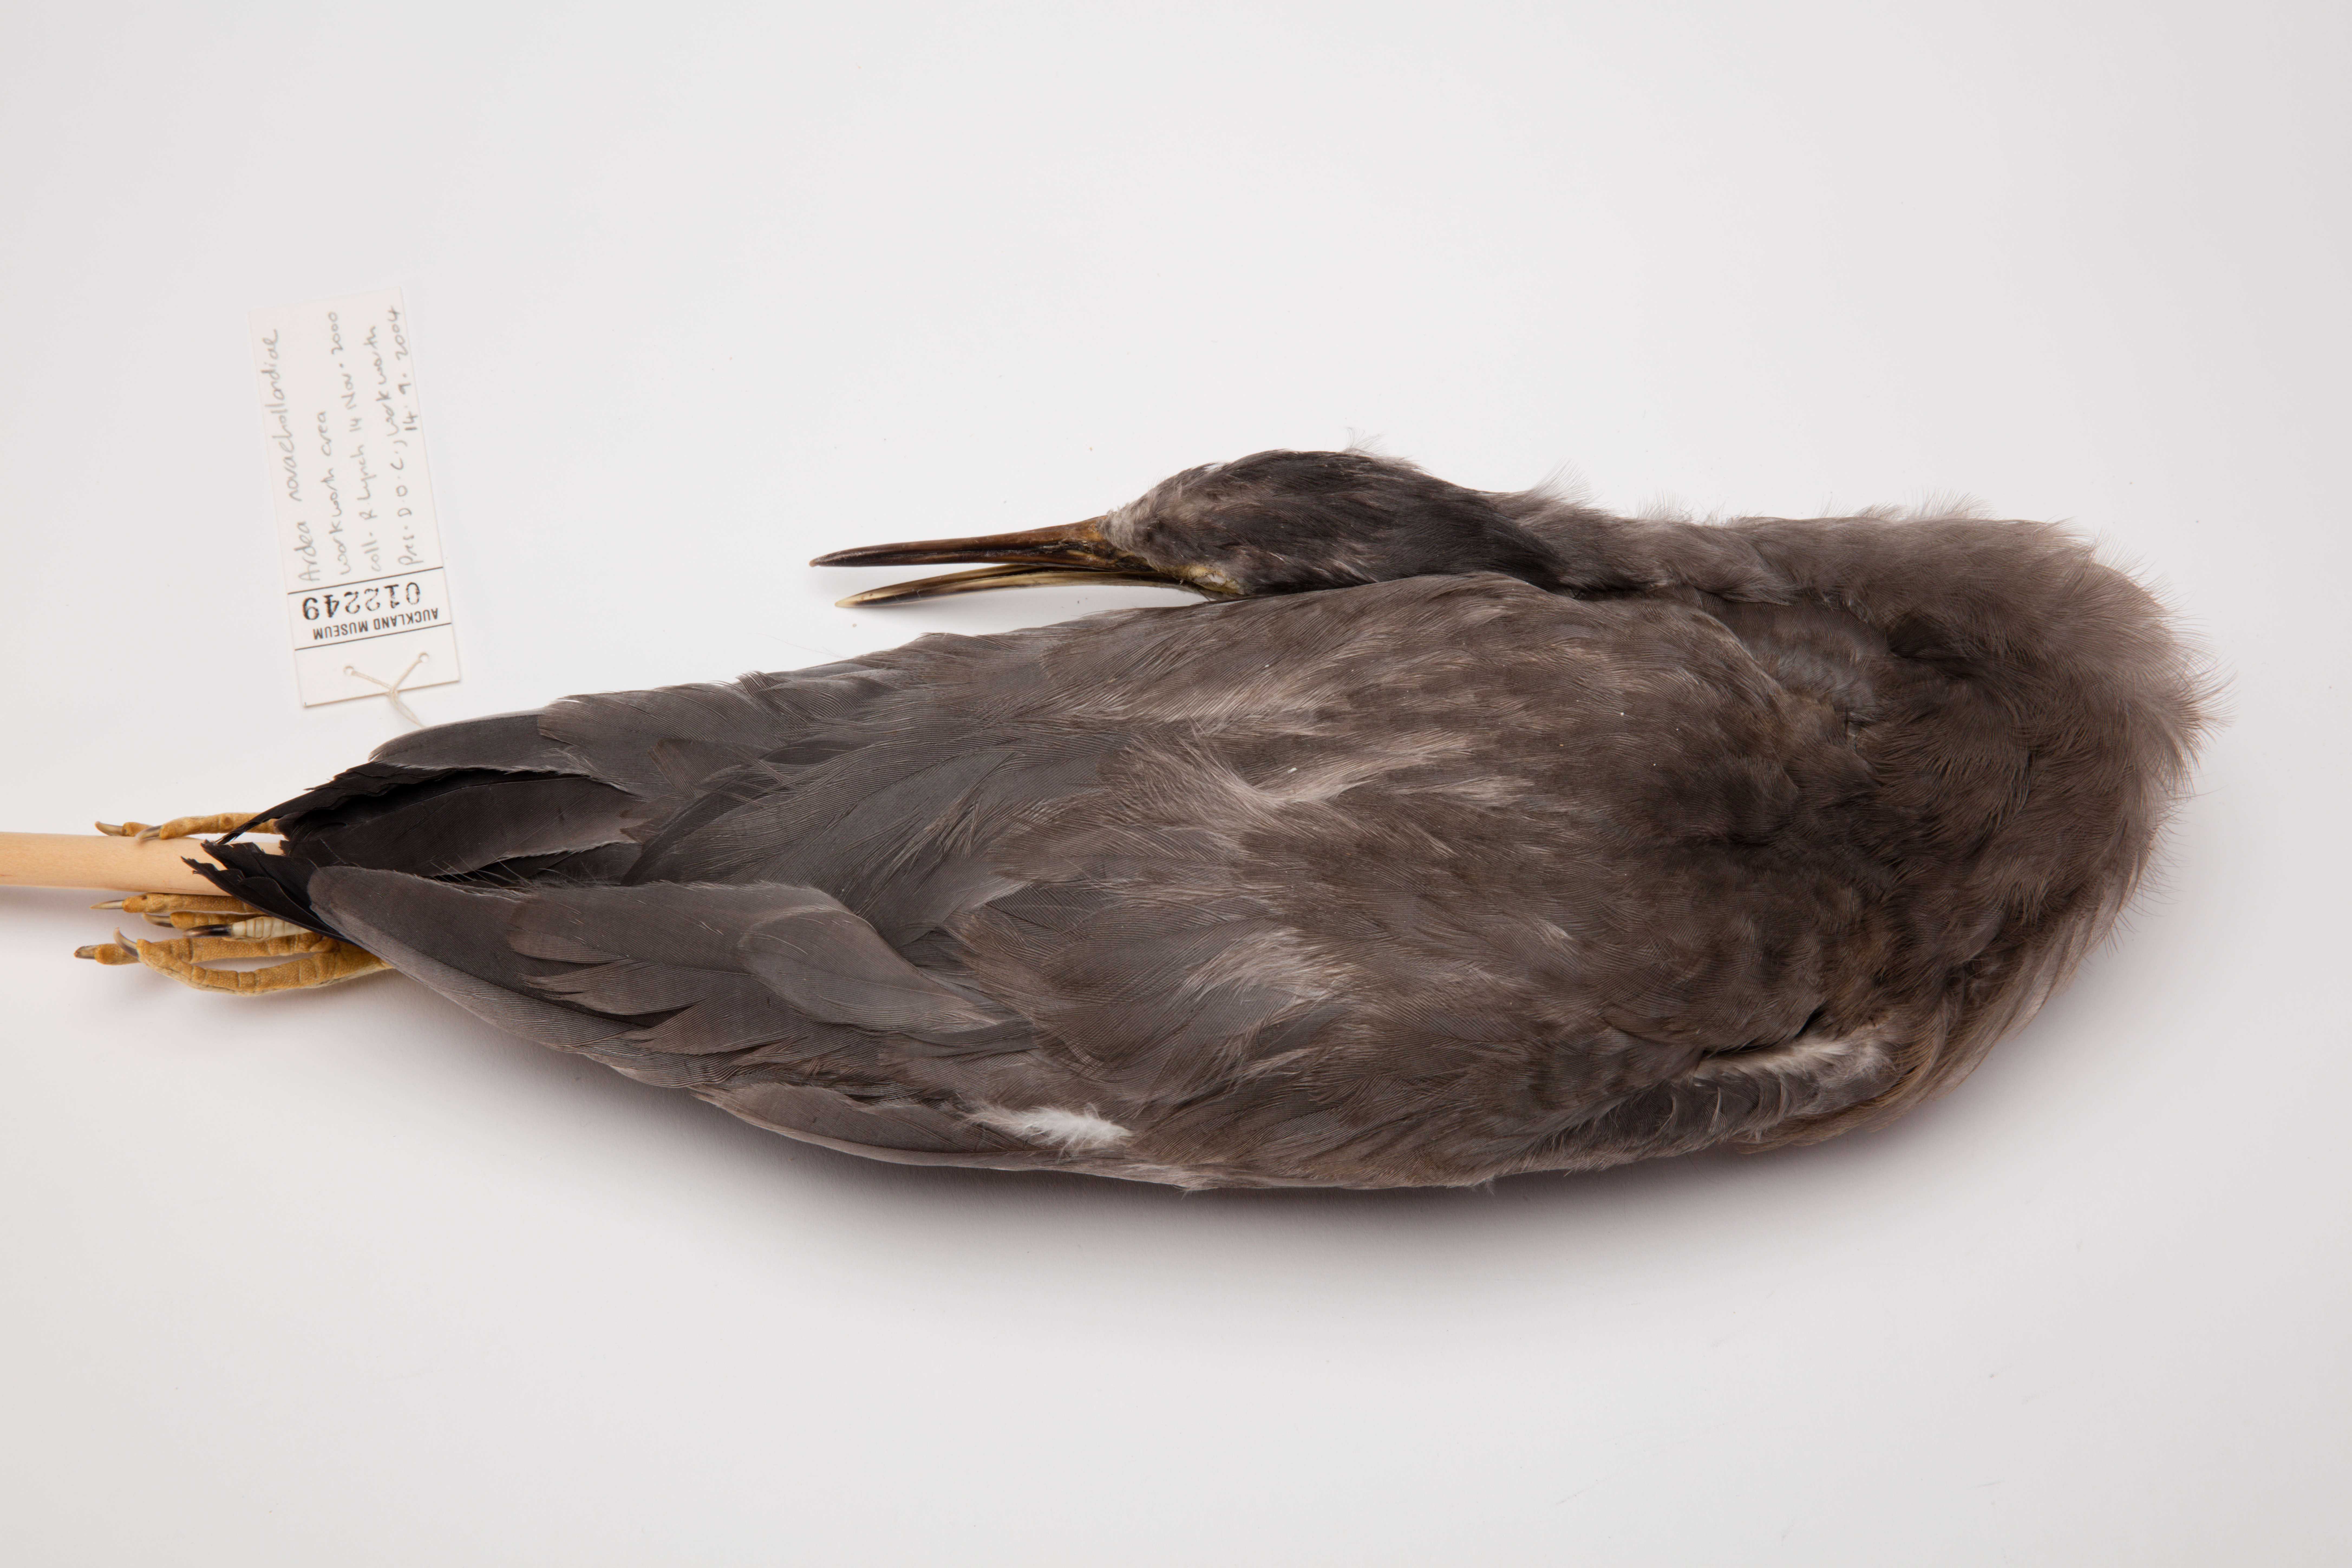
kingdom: Animalia
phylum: Chordata
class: Aves
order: Pelecaniformes
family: Ardeidae
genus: Egretta
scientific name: Egretta novaehollandiae
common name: White-faced heron
